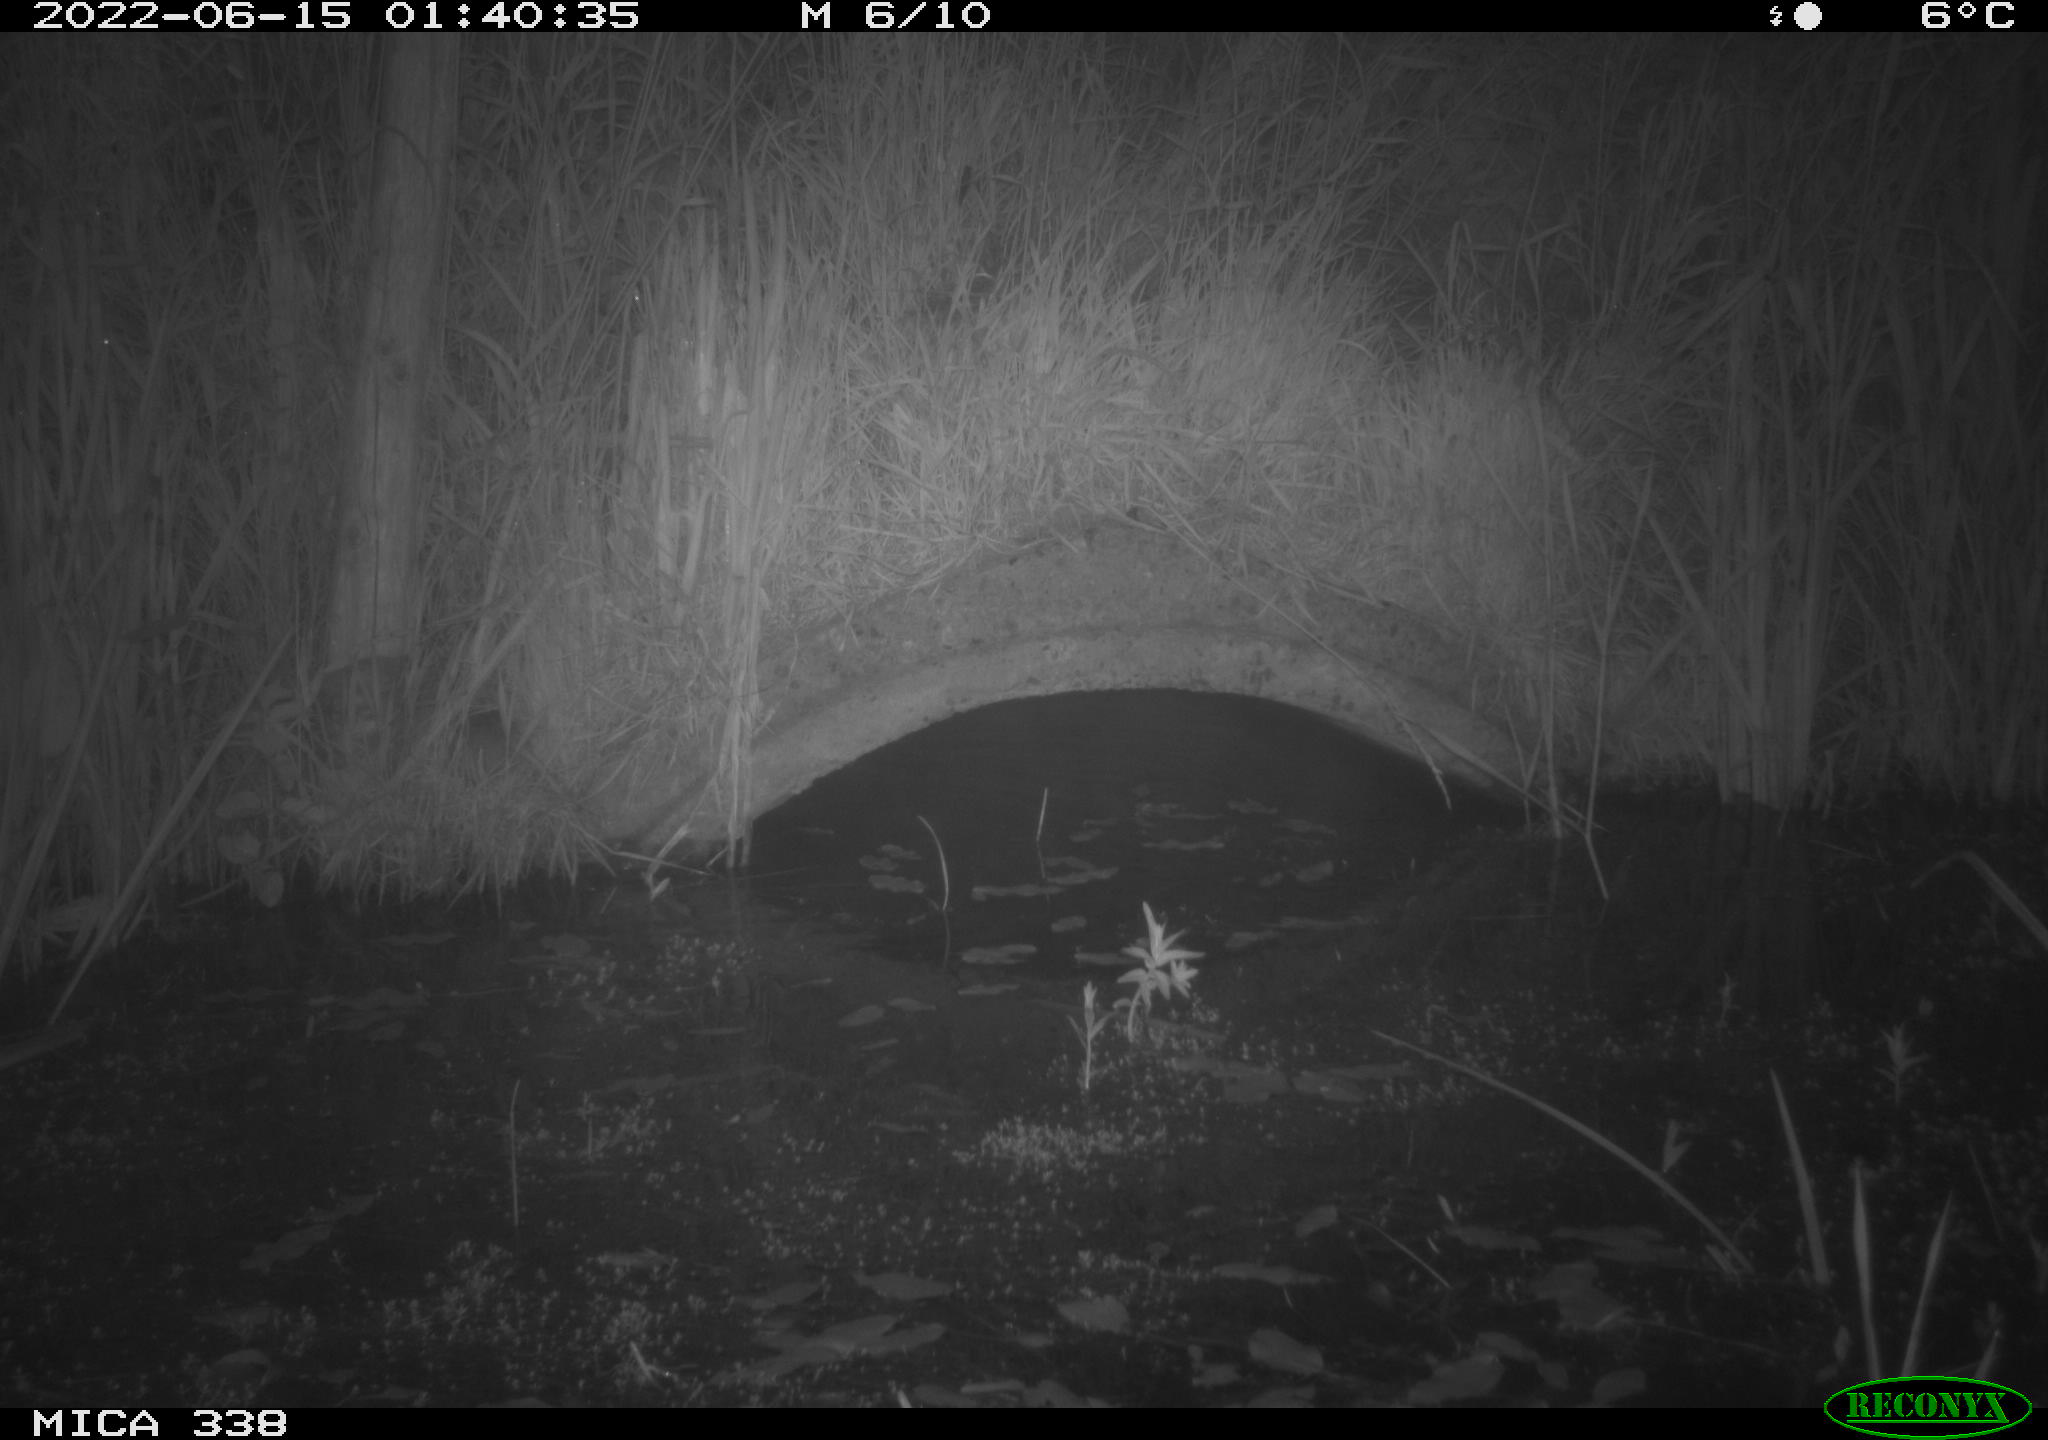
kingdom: Animalia
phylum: Chordata
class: Mammalia
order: Rodentia
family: Muridae
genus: Rattus
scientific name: Rattus norvegicus
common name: Brown rat
